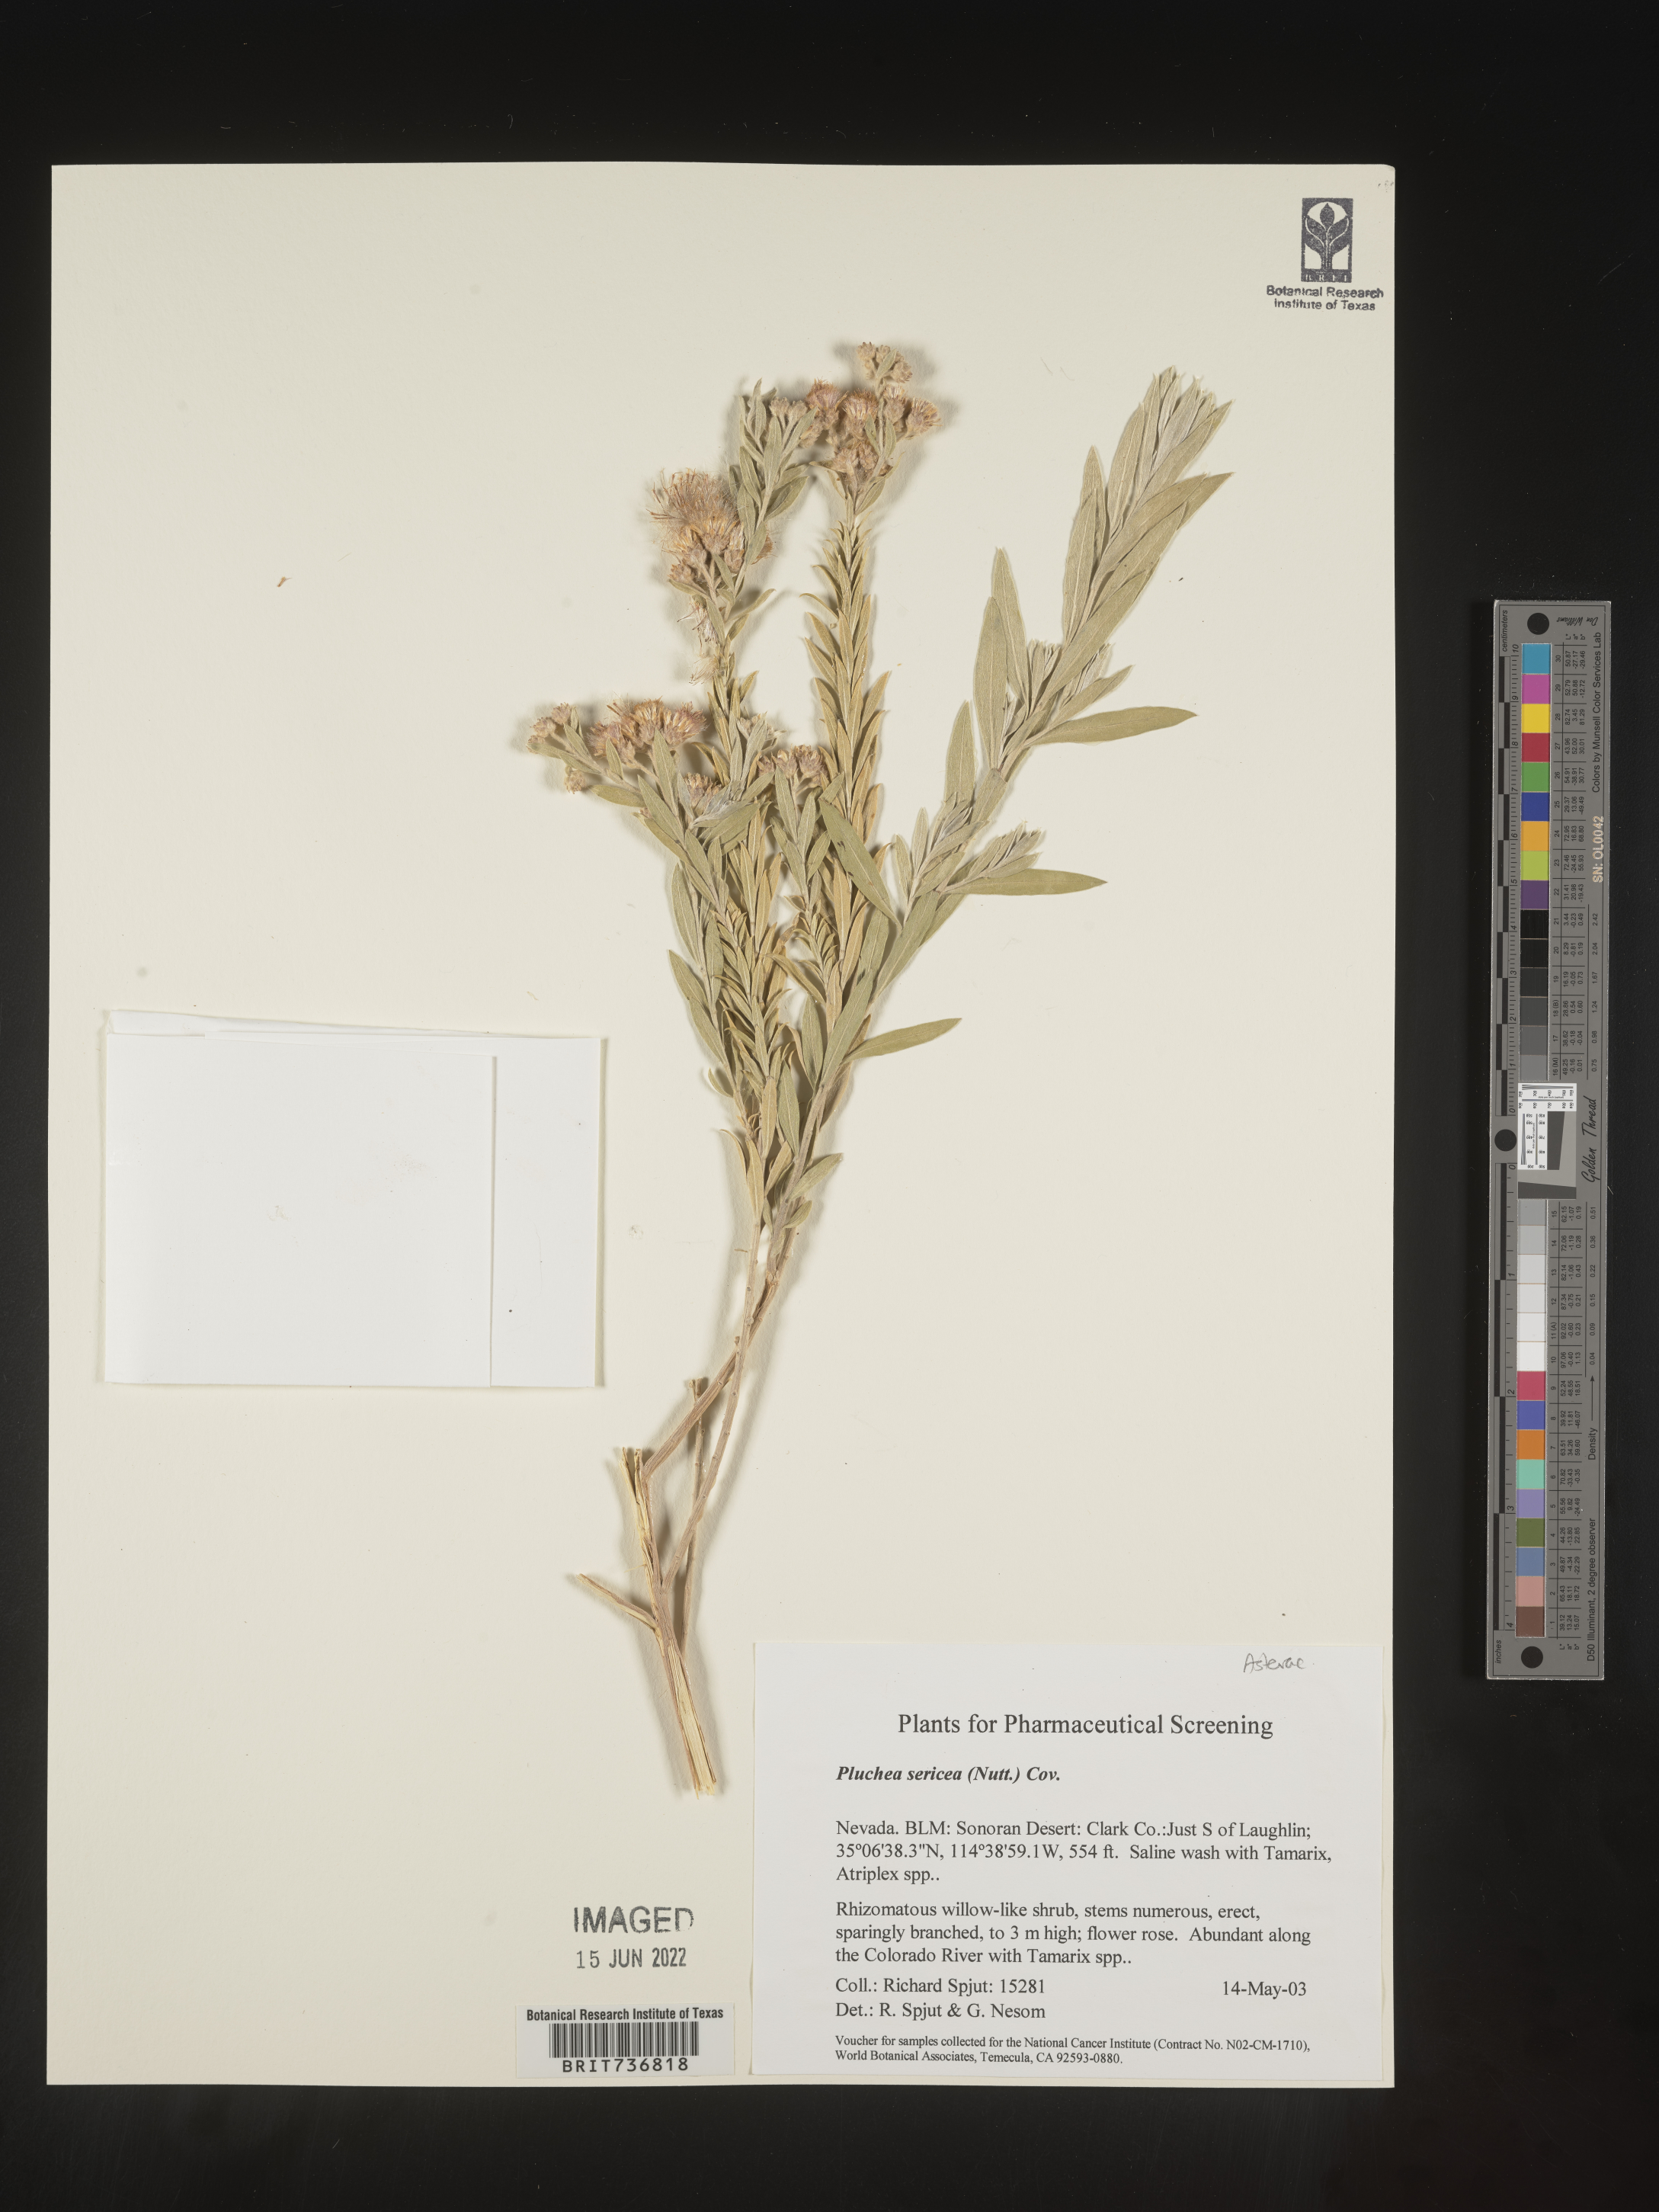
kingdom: Plantae
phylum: Tracheophyta
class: Magnoliopsida
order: Asterales
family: Asteraceae
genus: Pluchea
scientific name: Pluchea sericea
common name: Arrow-weed
